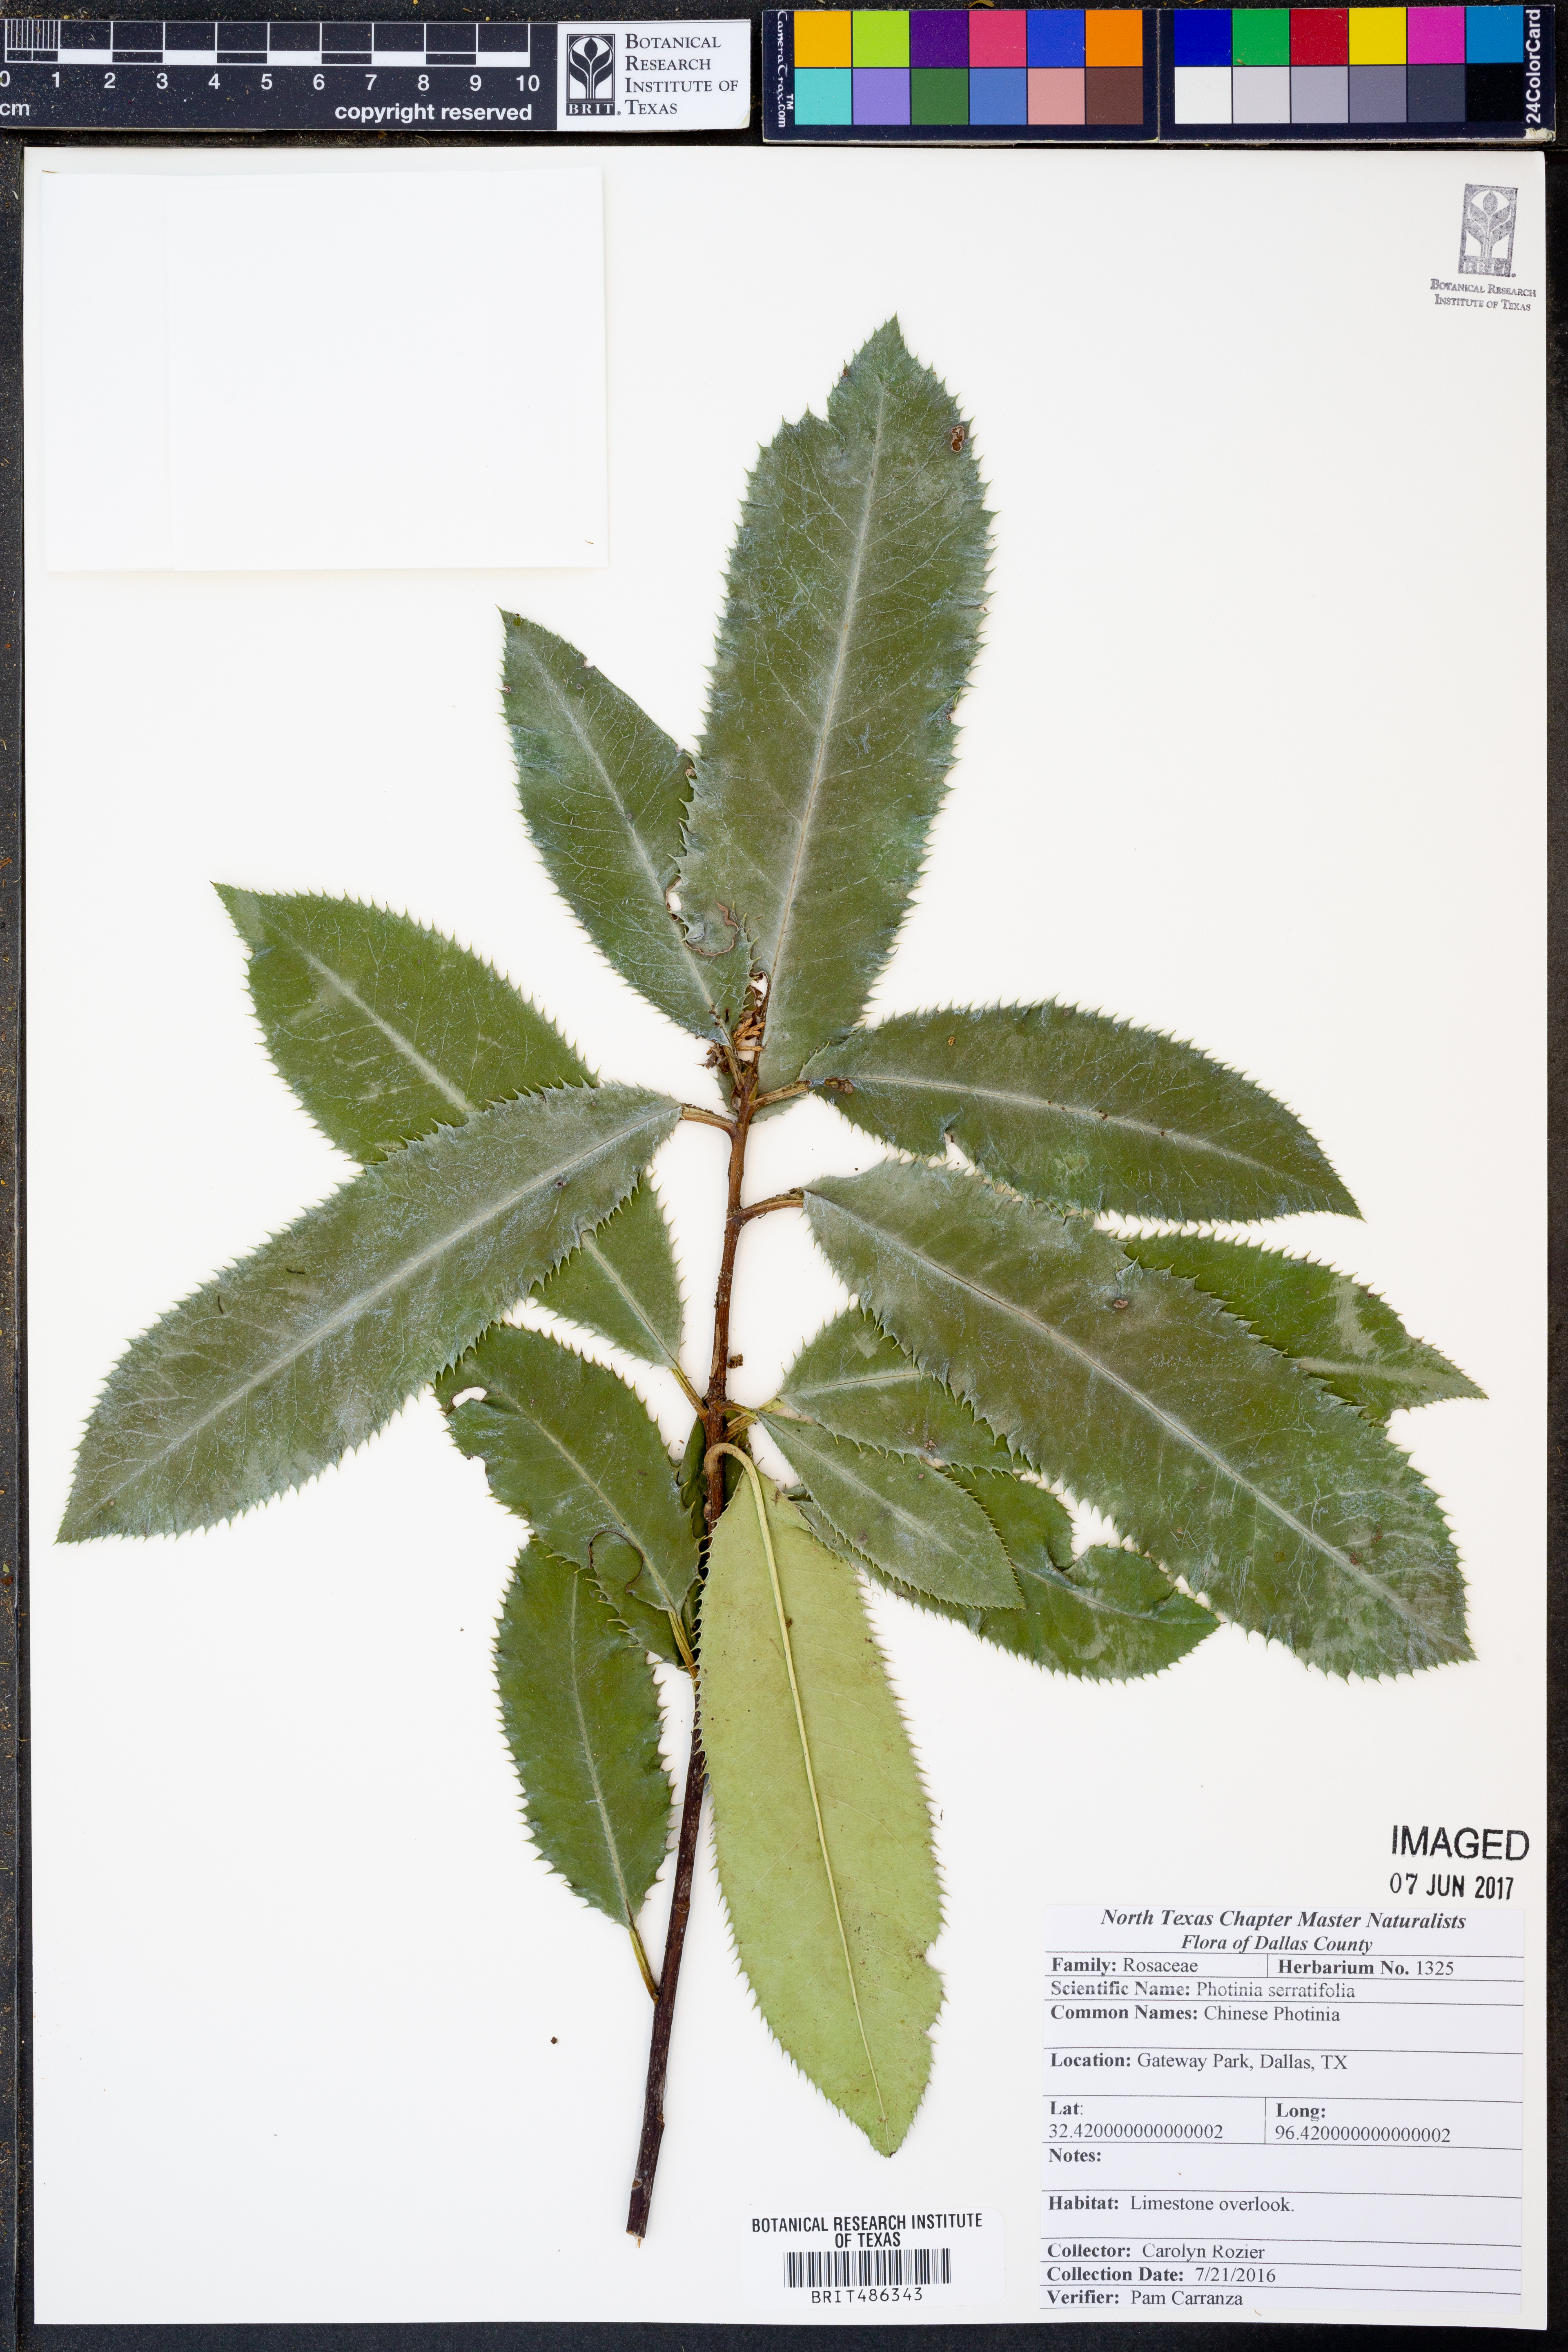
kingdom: Plantae
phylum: Tracheophyta
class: Magnoliopsida
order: Rosales
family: Rosaceae
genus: Photinia
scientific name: Photinia serratifolia
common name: Taiwanese photinia
